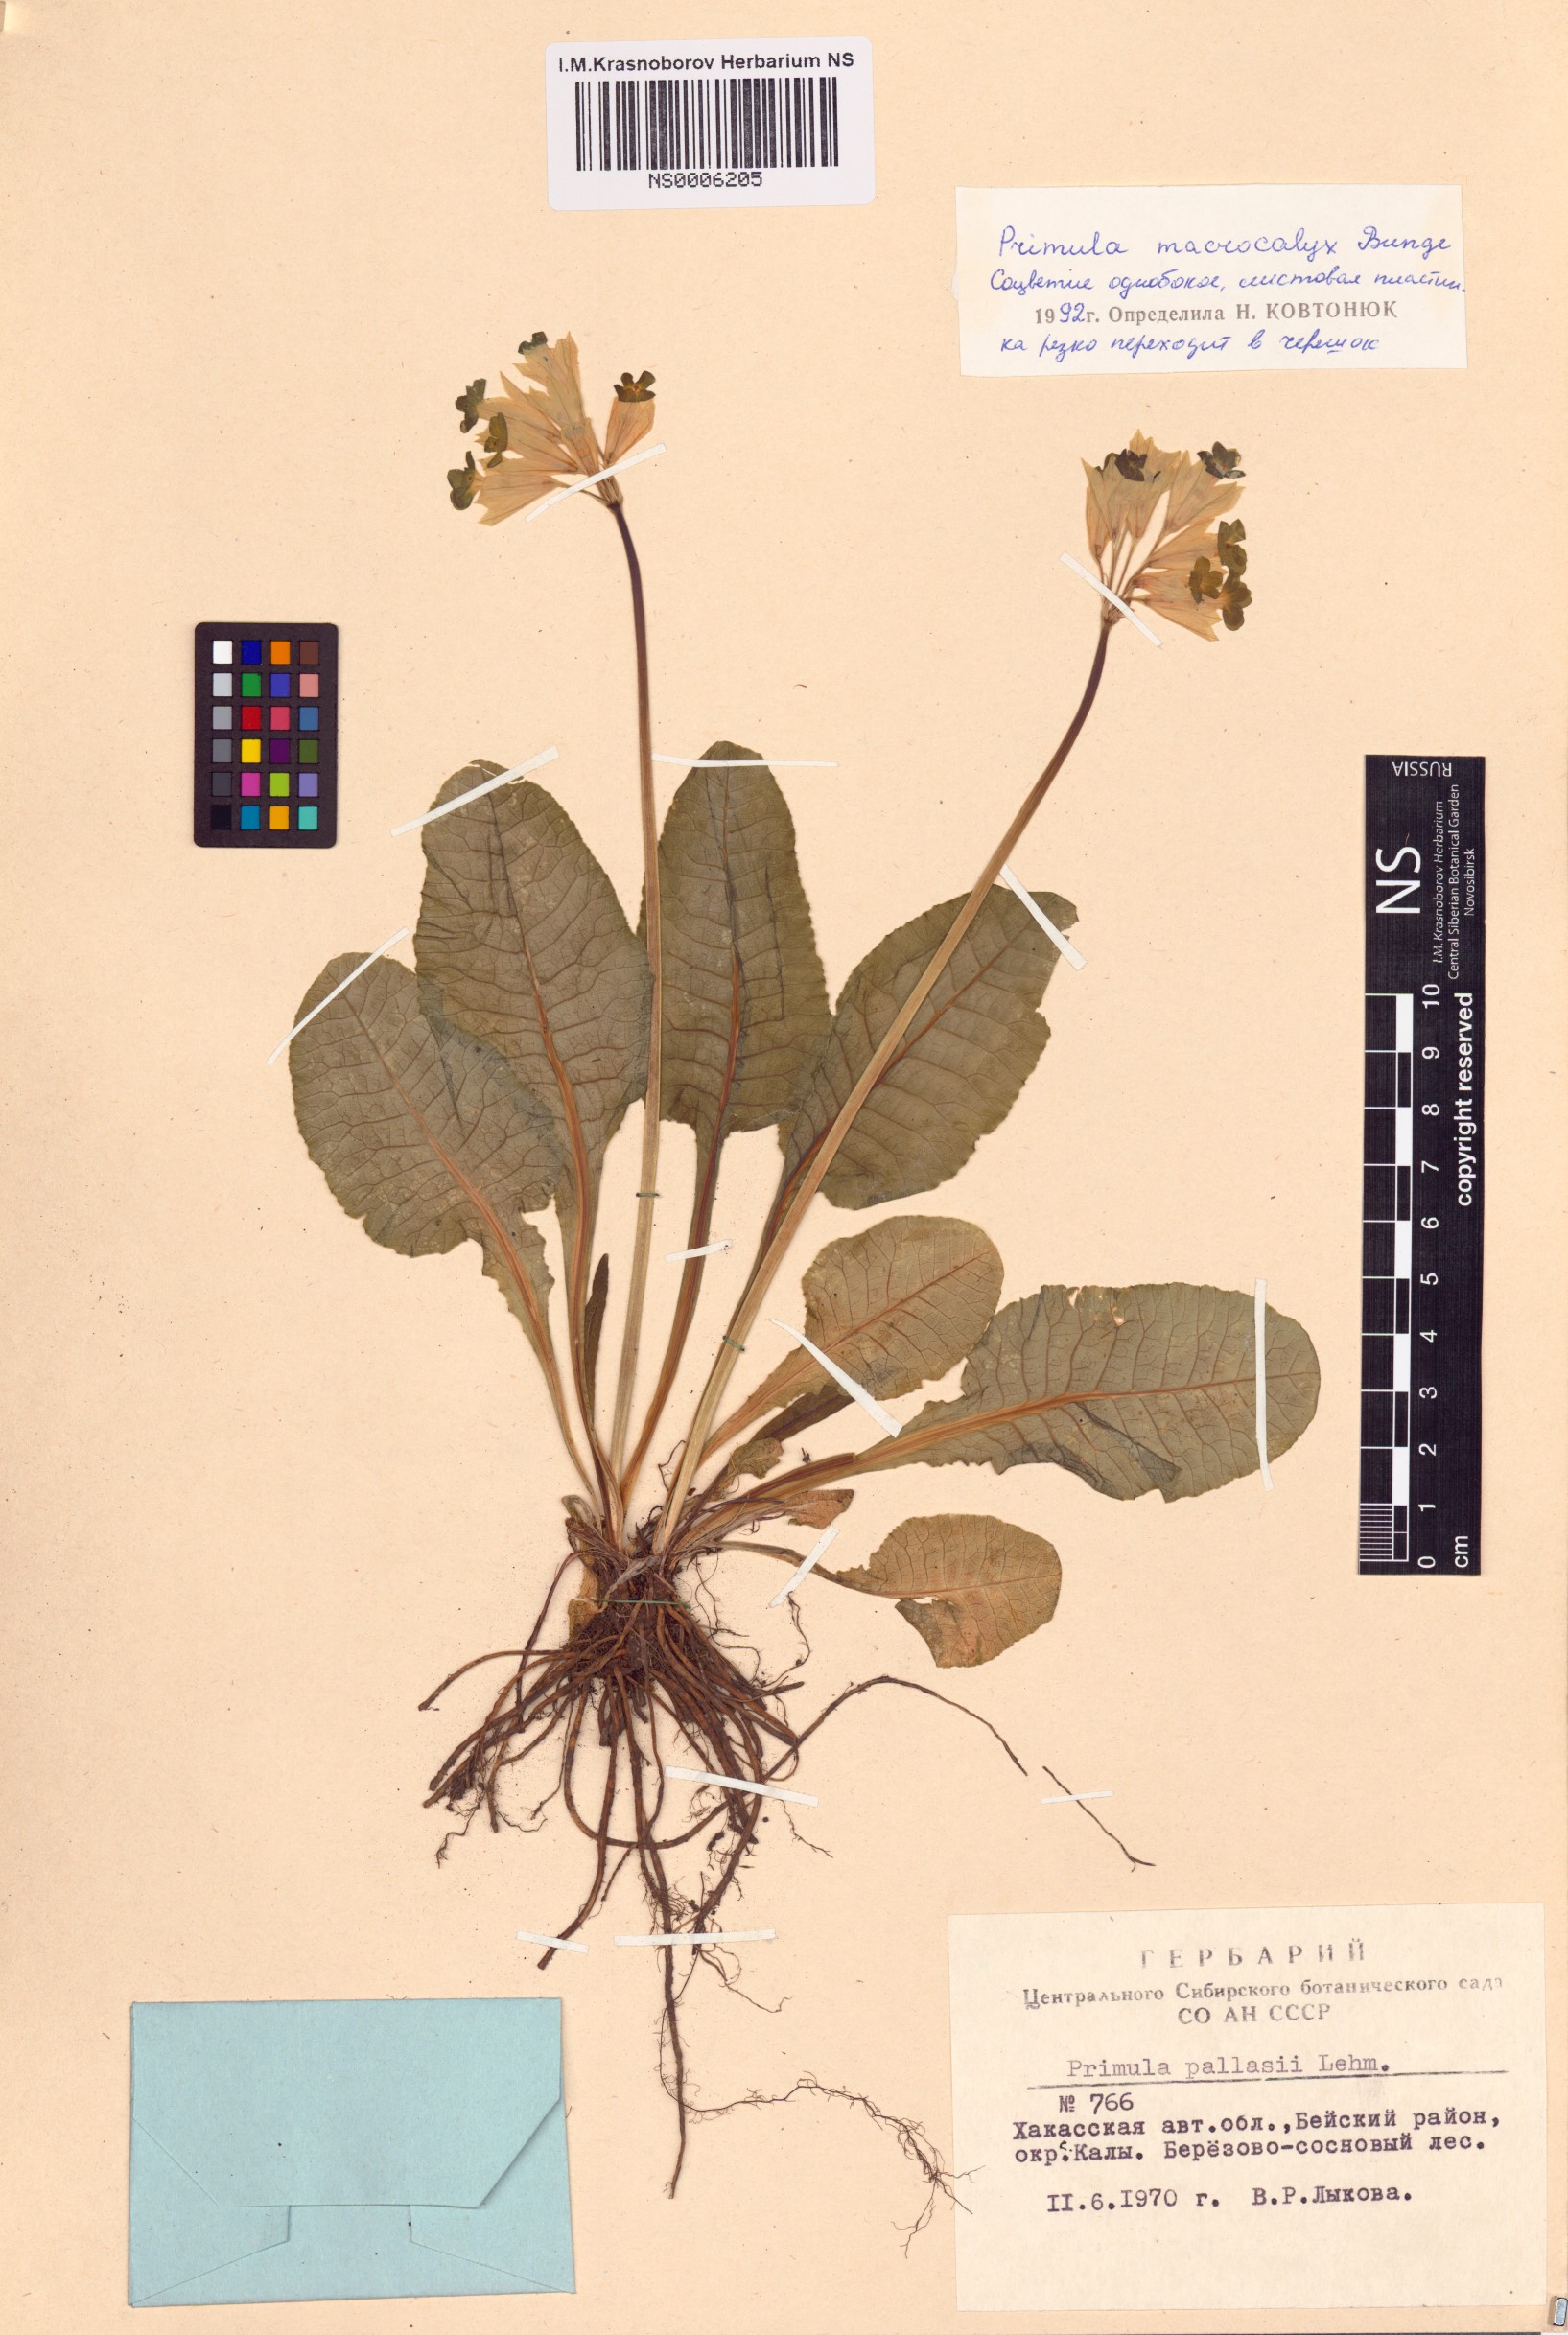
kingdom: Plantae
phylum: Tracheophyta
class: Magnoliopsida
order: Ericales
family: Primulaceae
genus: Primula
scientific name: Primula veris
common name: Cowslip
